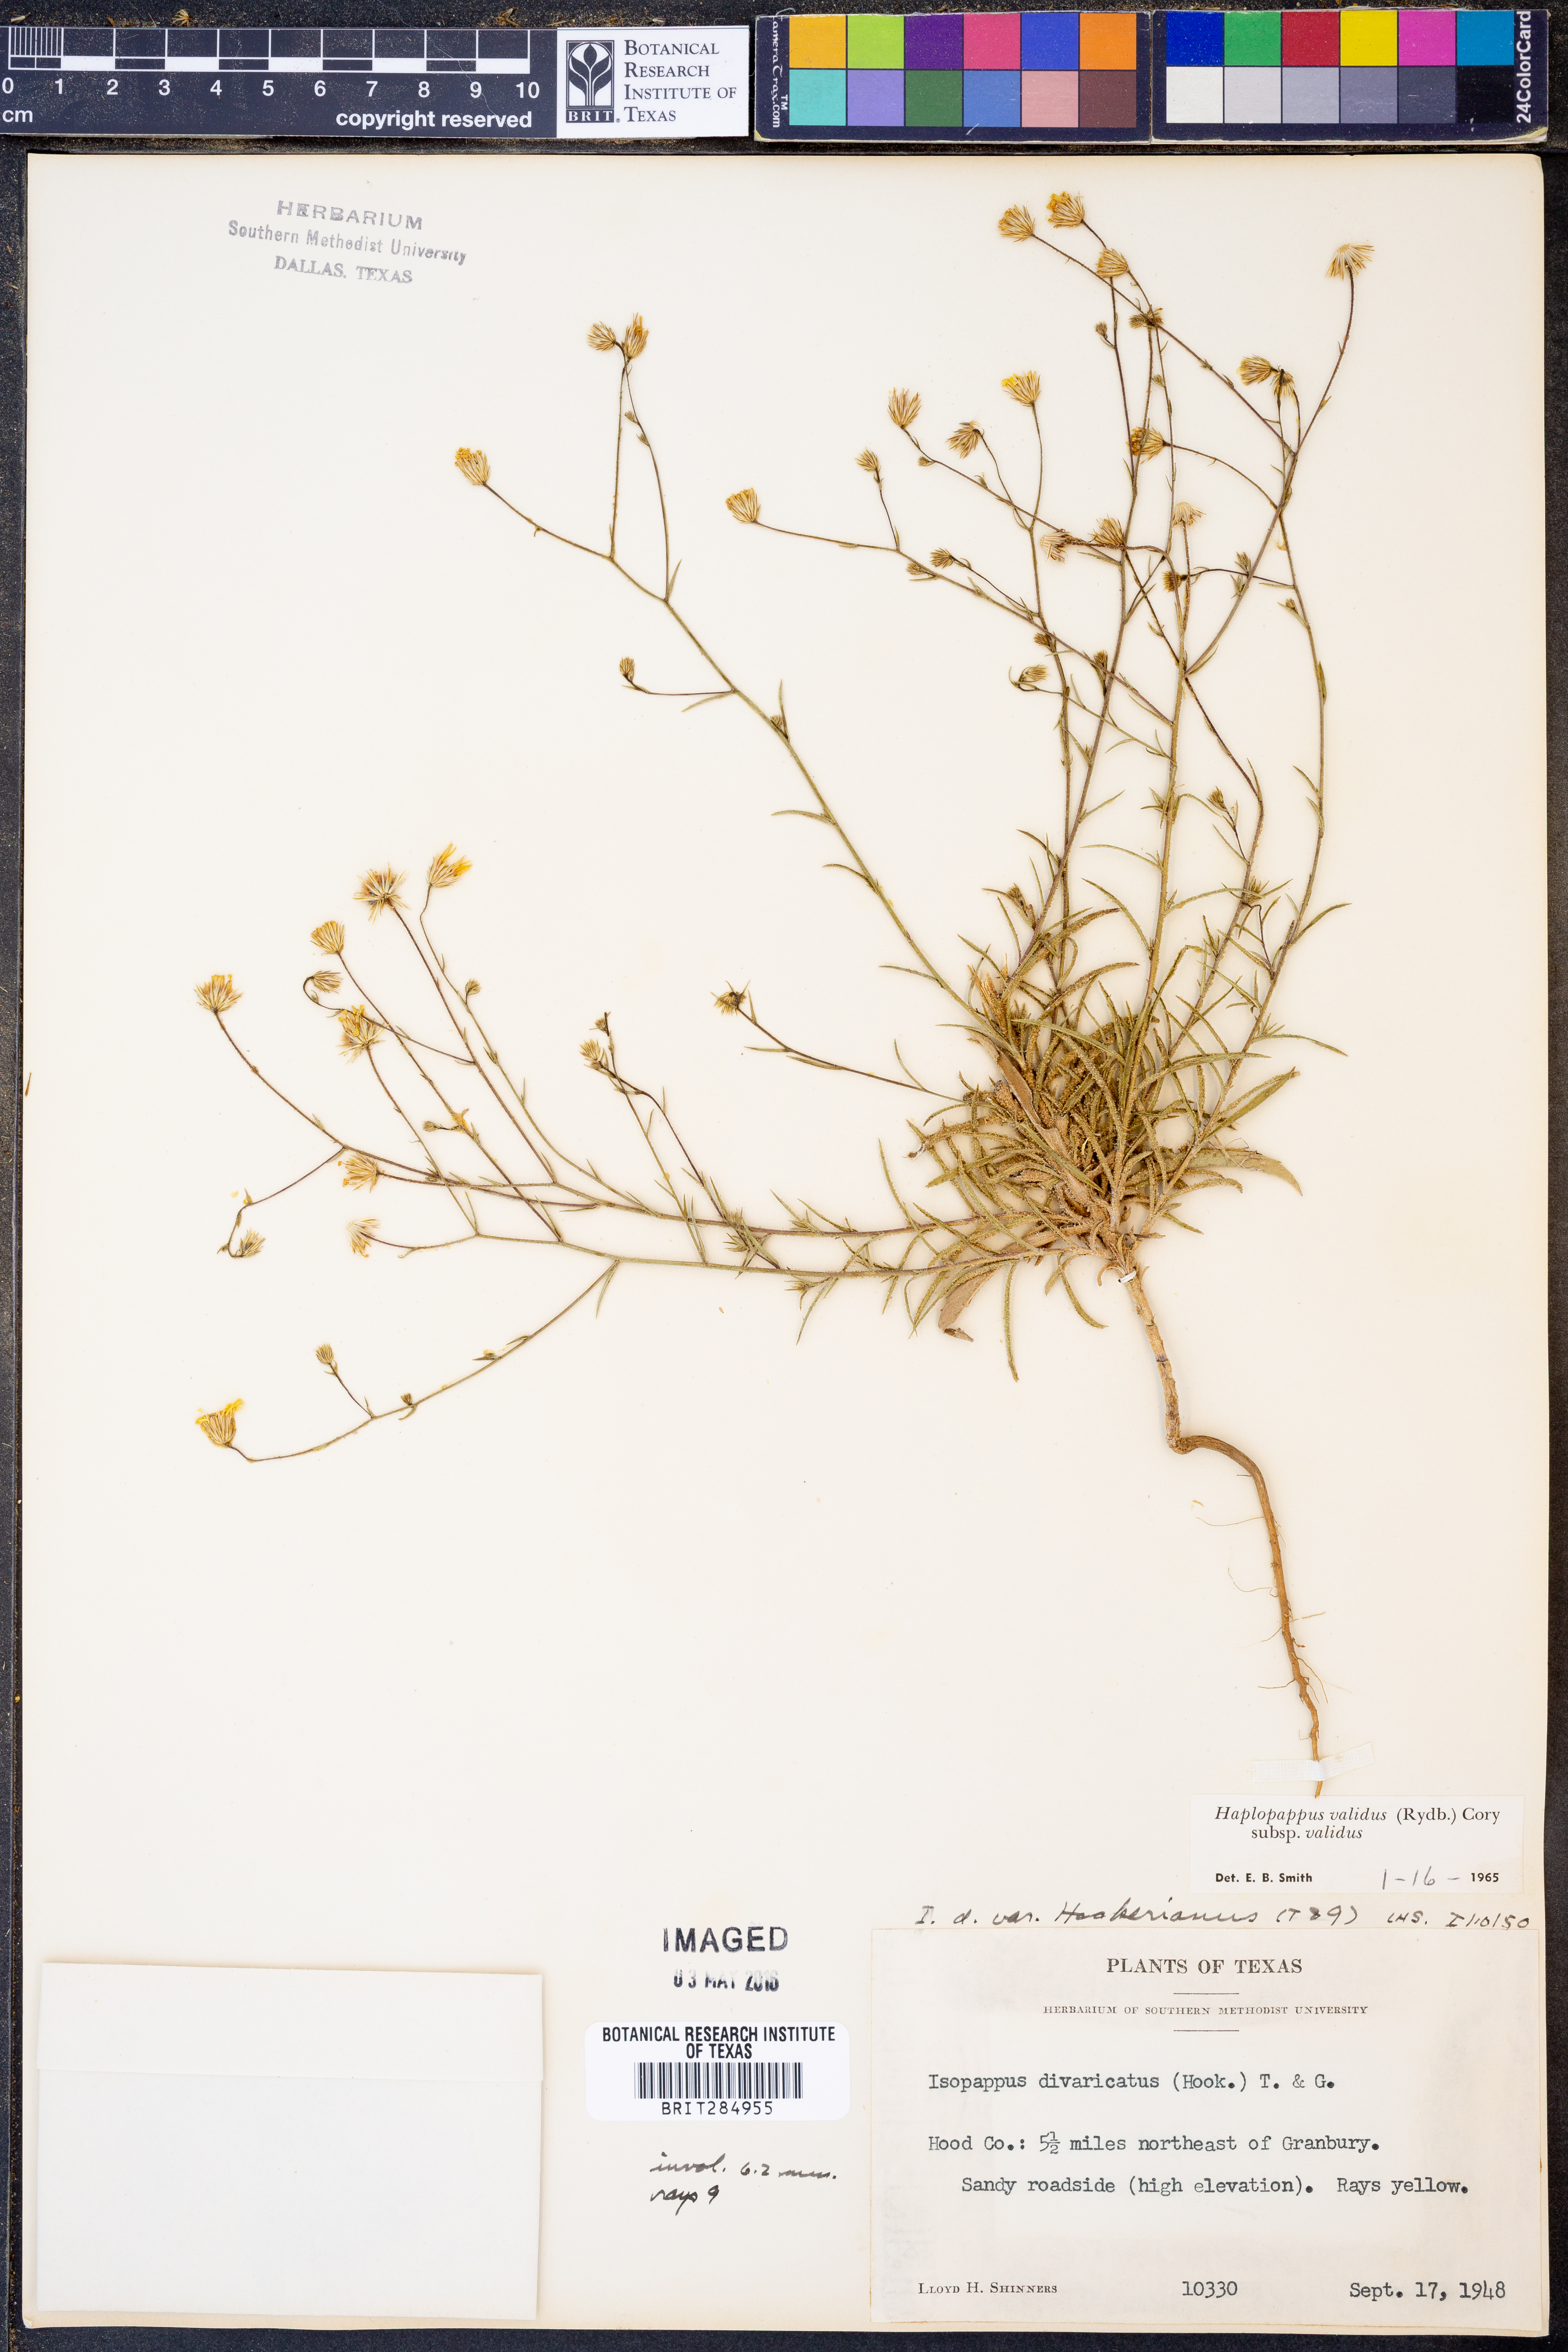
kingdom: Plantae
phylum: Tracheophyta
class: Magnoliopsida
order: Asterales
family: Asteraceae
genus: Croptilon
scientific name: Croptilon hookerianum
